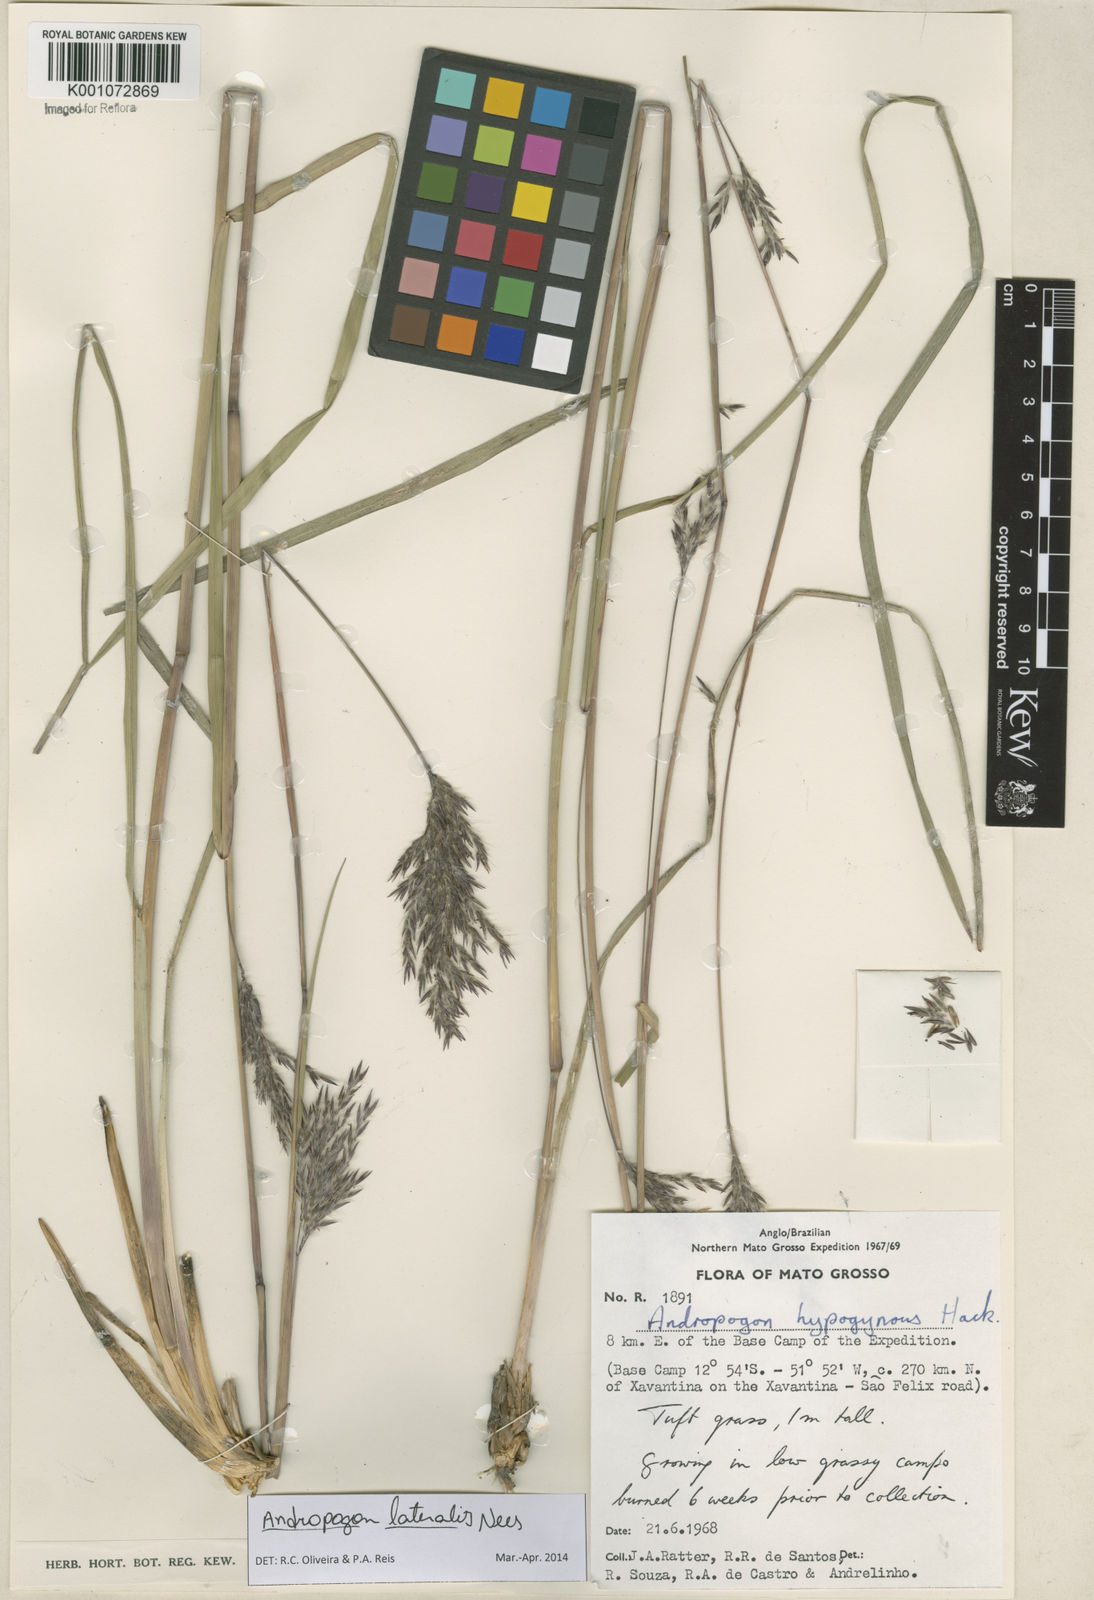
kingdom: Plantae
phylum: Tracheophyta
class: Liliopsida
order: Poales
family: Poaceae
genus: Andropogon
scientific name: Andropogon lateralis
